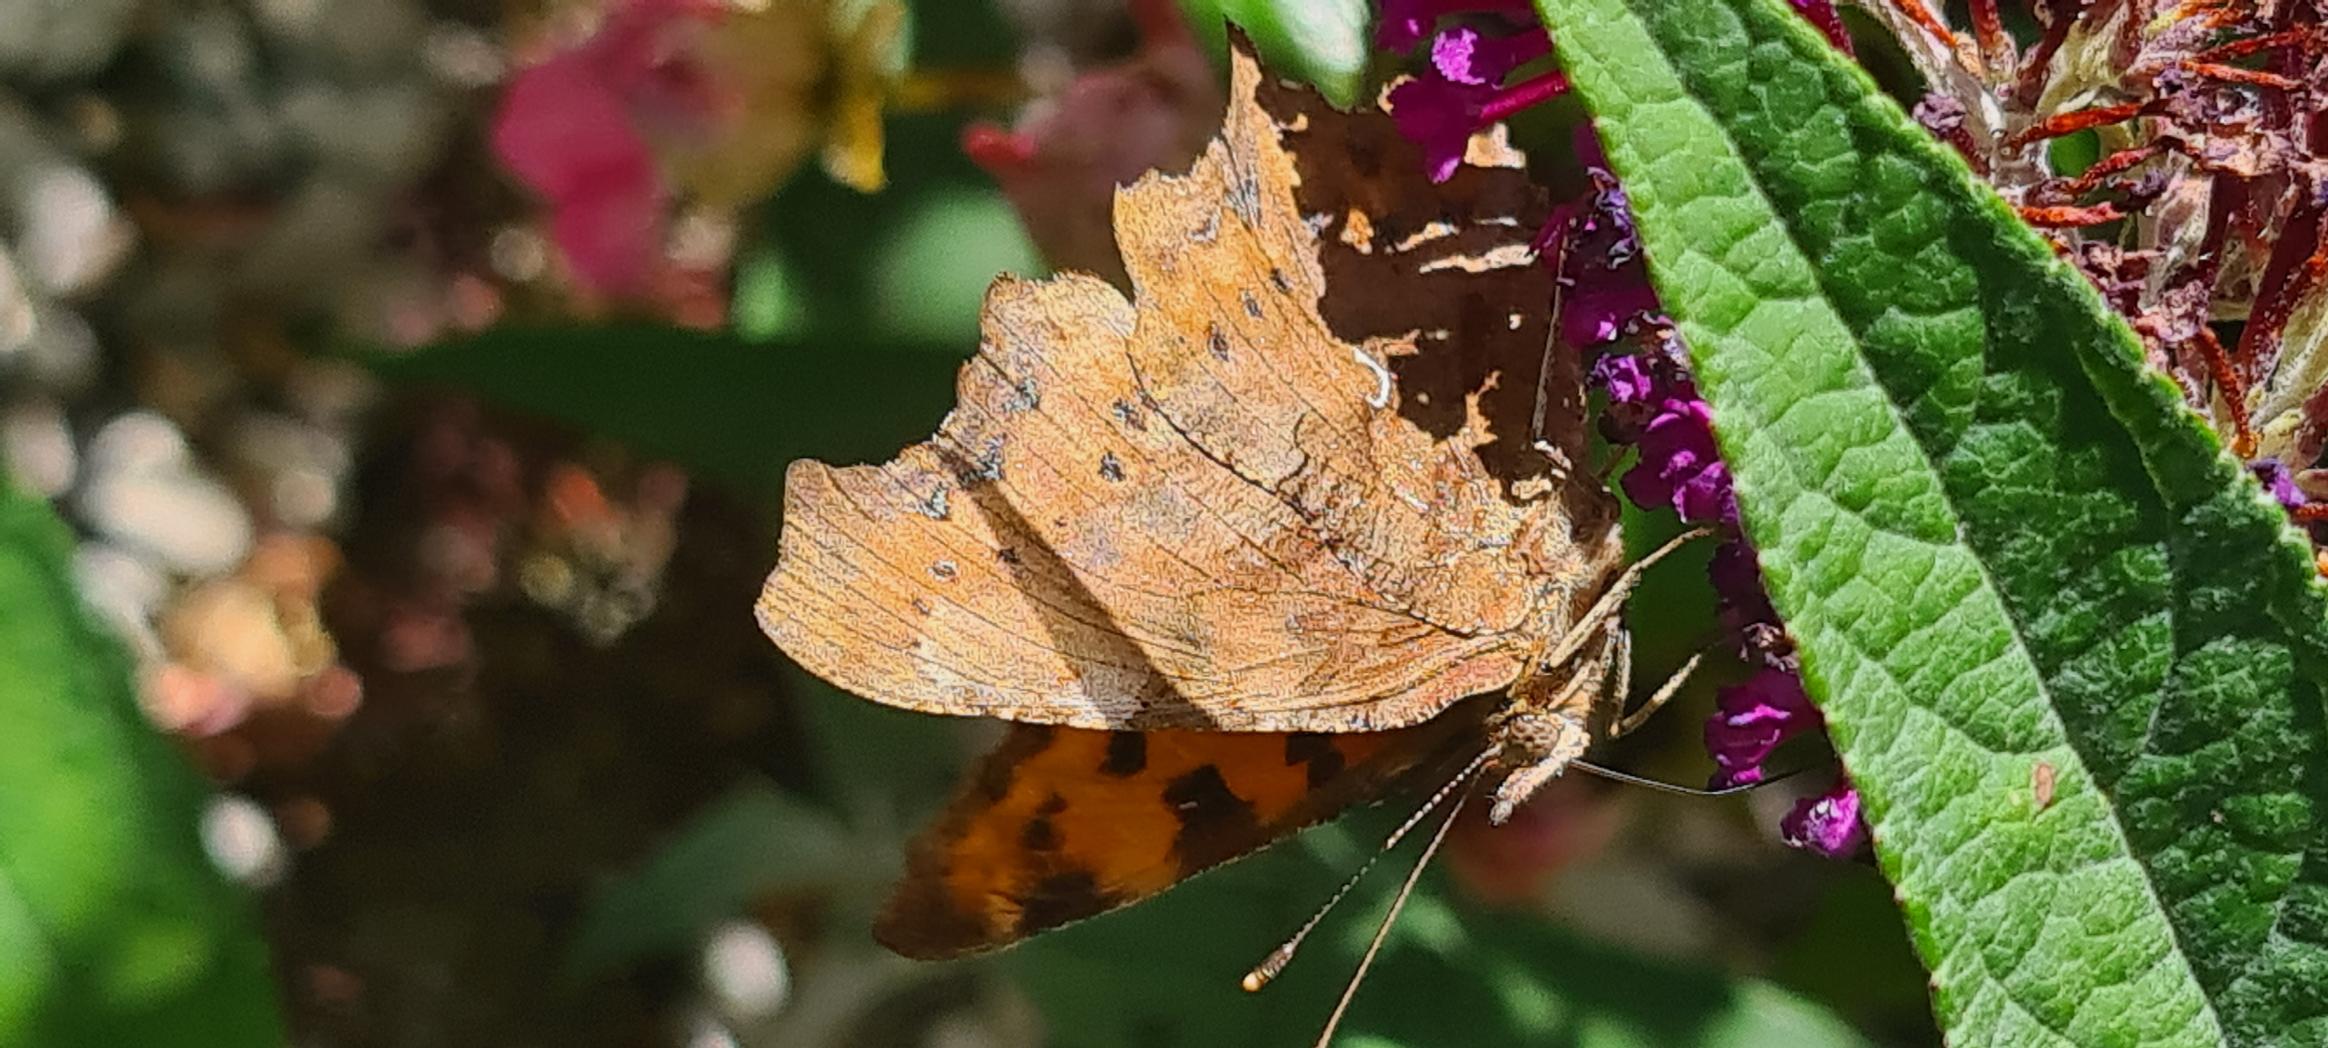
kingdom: Animalia
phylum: Arthropoda
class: Insecta
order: Lepidoptera
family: Nymphalidae
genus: Polygonia
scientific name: Polygonia c-album
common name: Det hvide C
